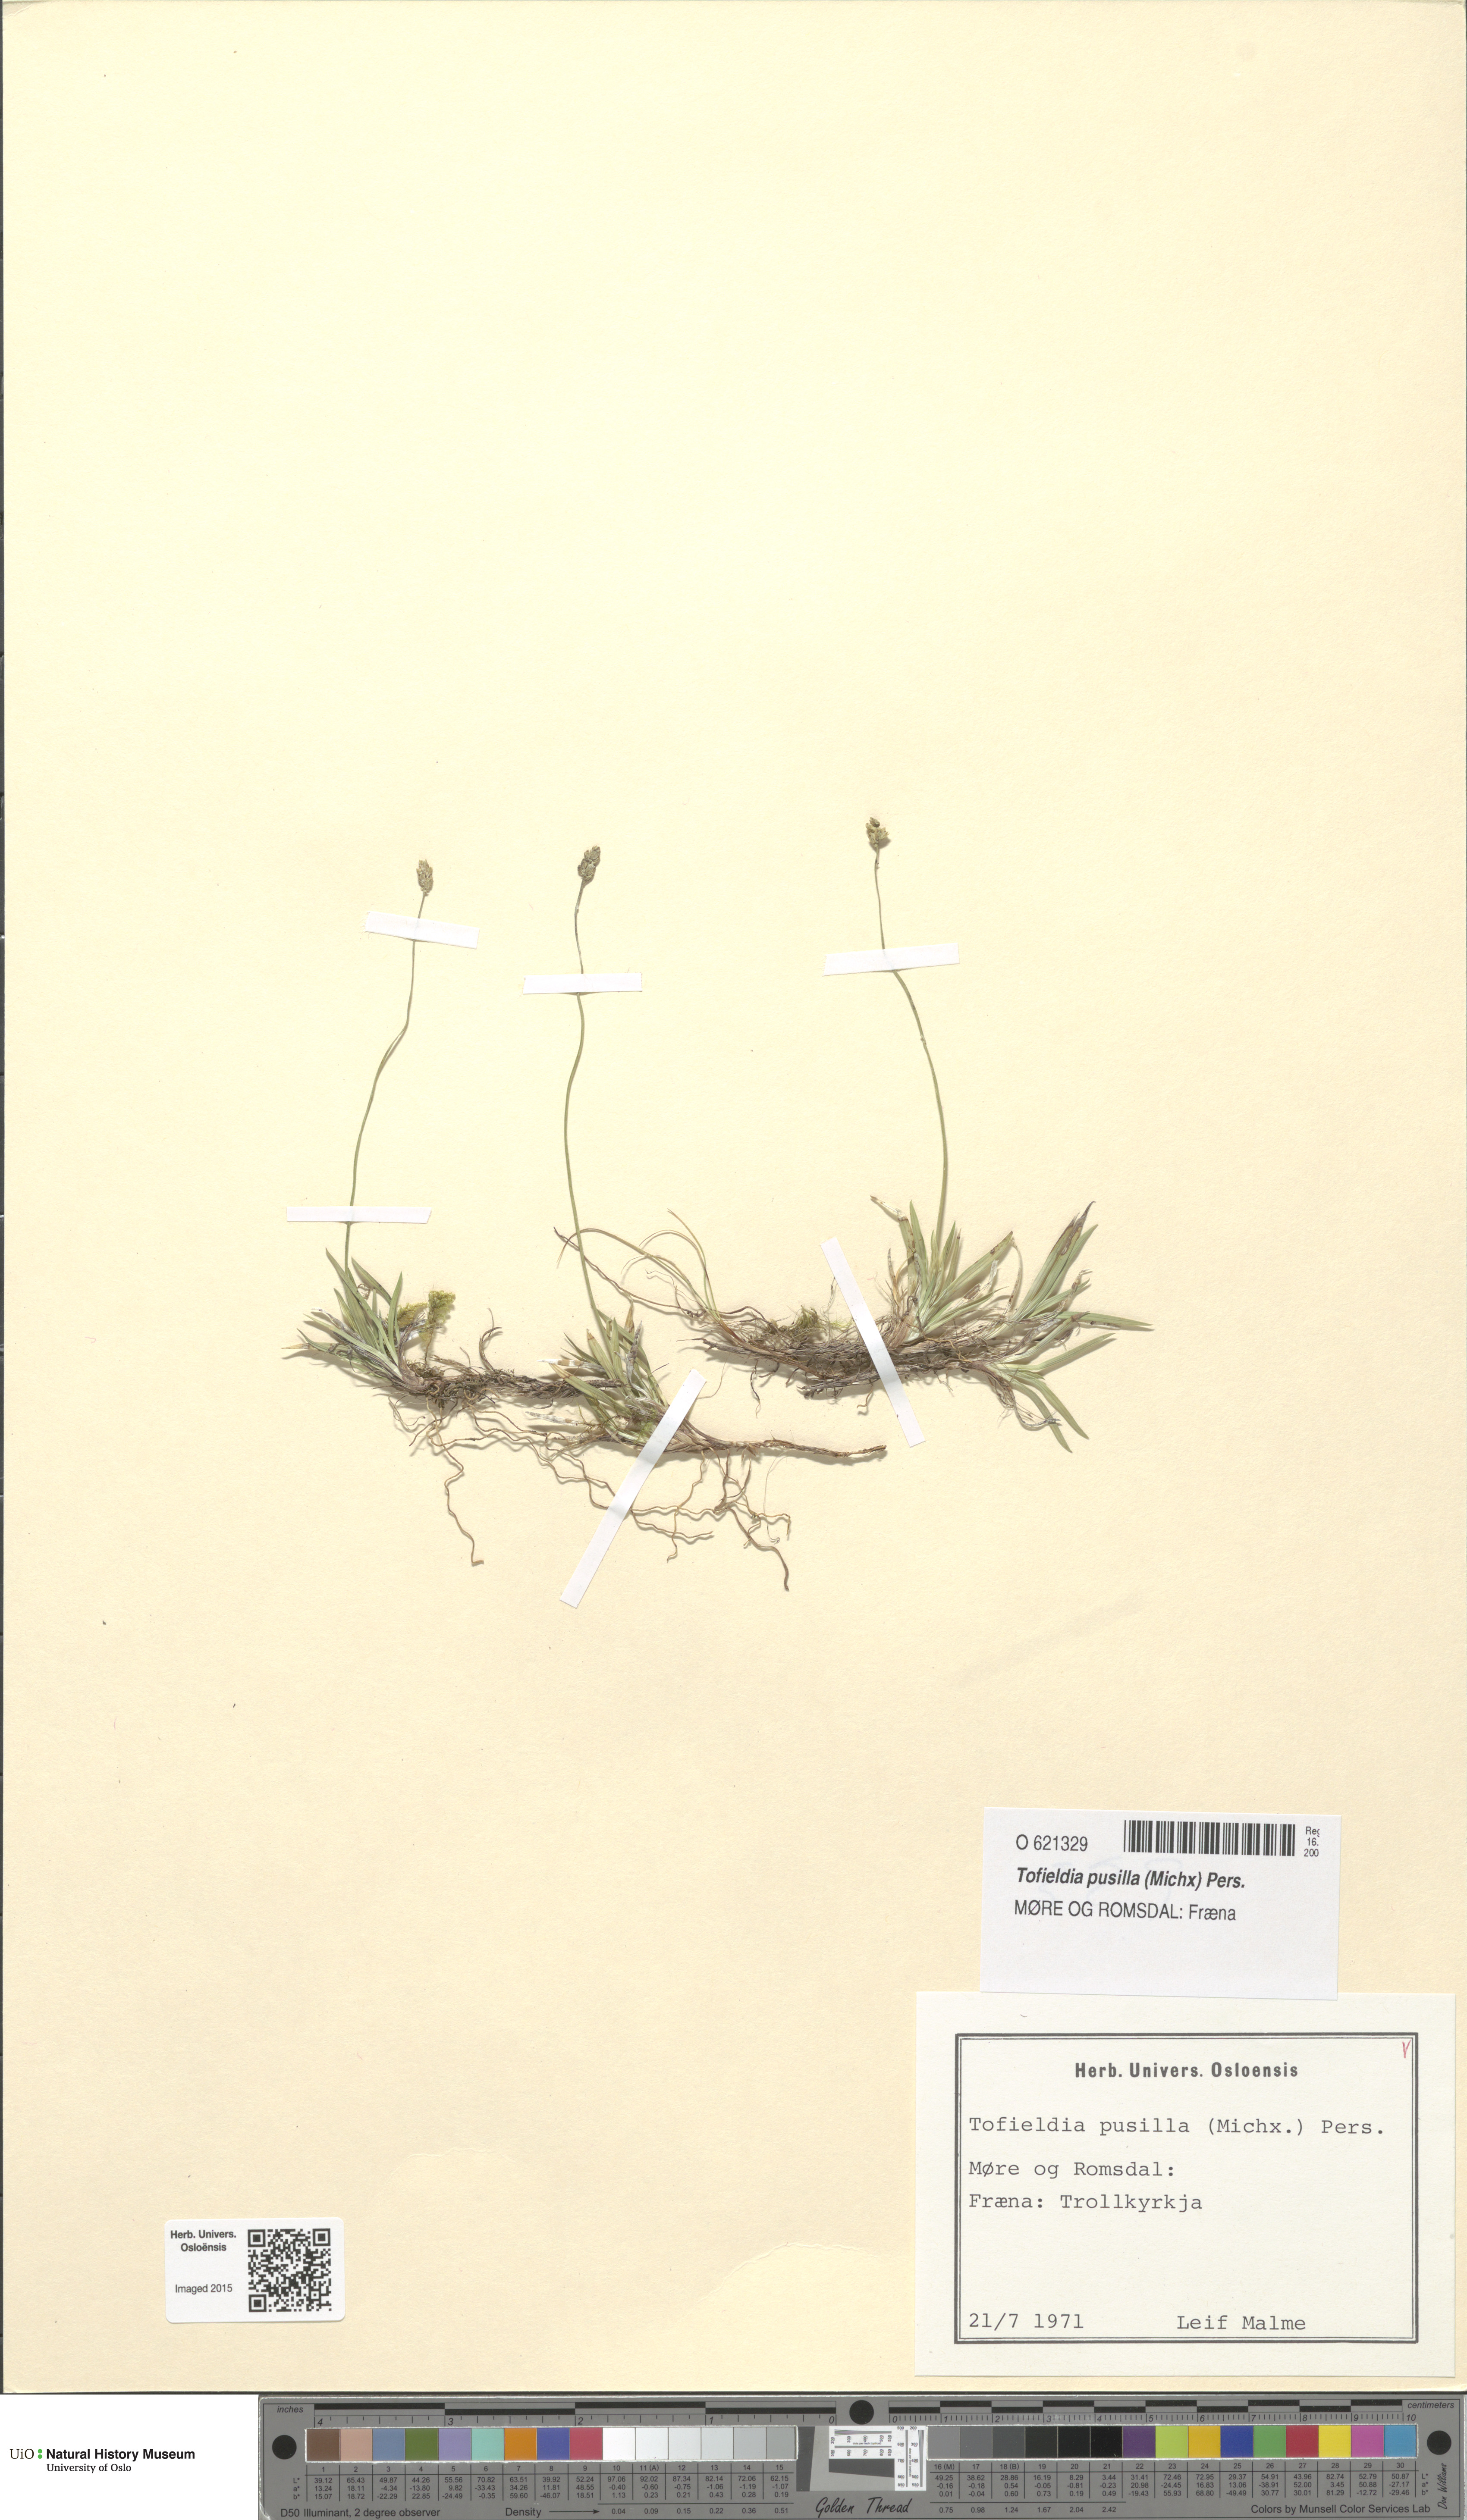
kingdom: Plantae
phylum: Tracheophyta
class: Liliopsida
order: Alismatales
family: Tofieldiaceae
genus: Tofieldia
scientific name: Tofieldia pusilla
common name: Scottish false asphodel
